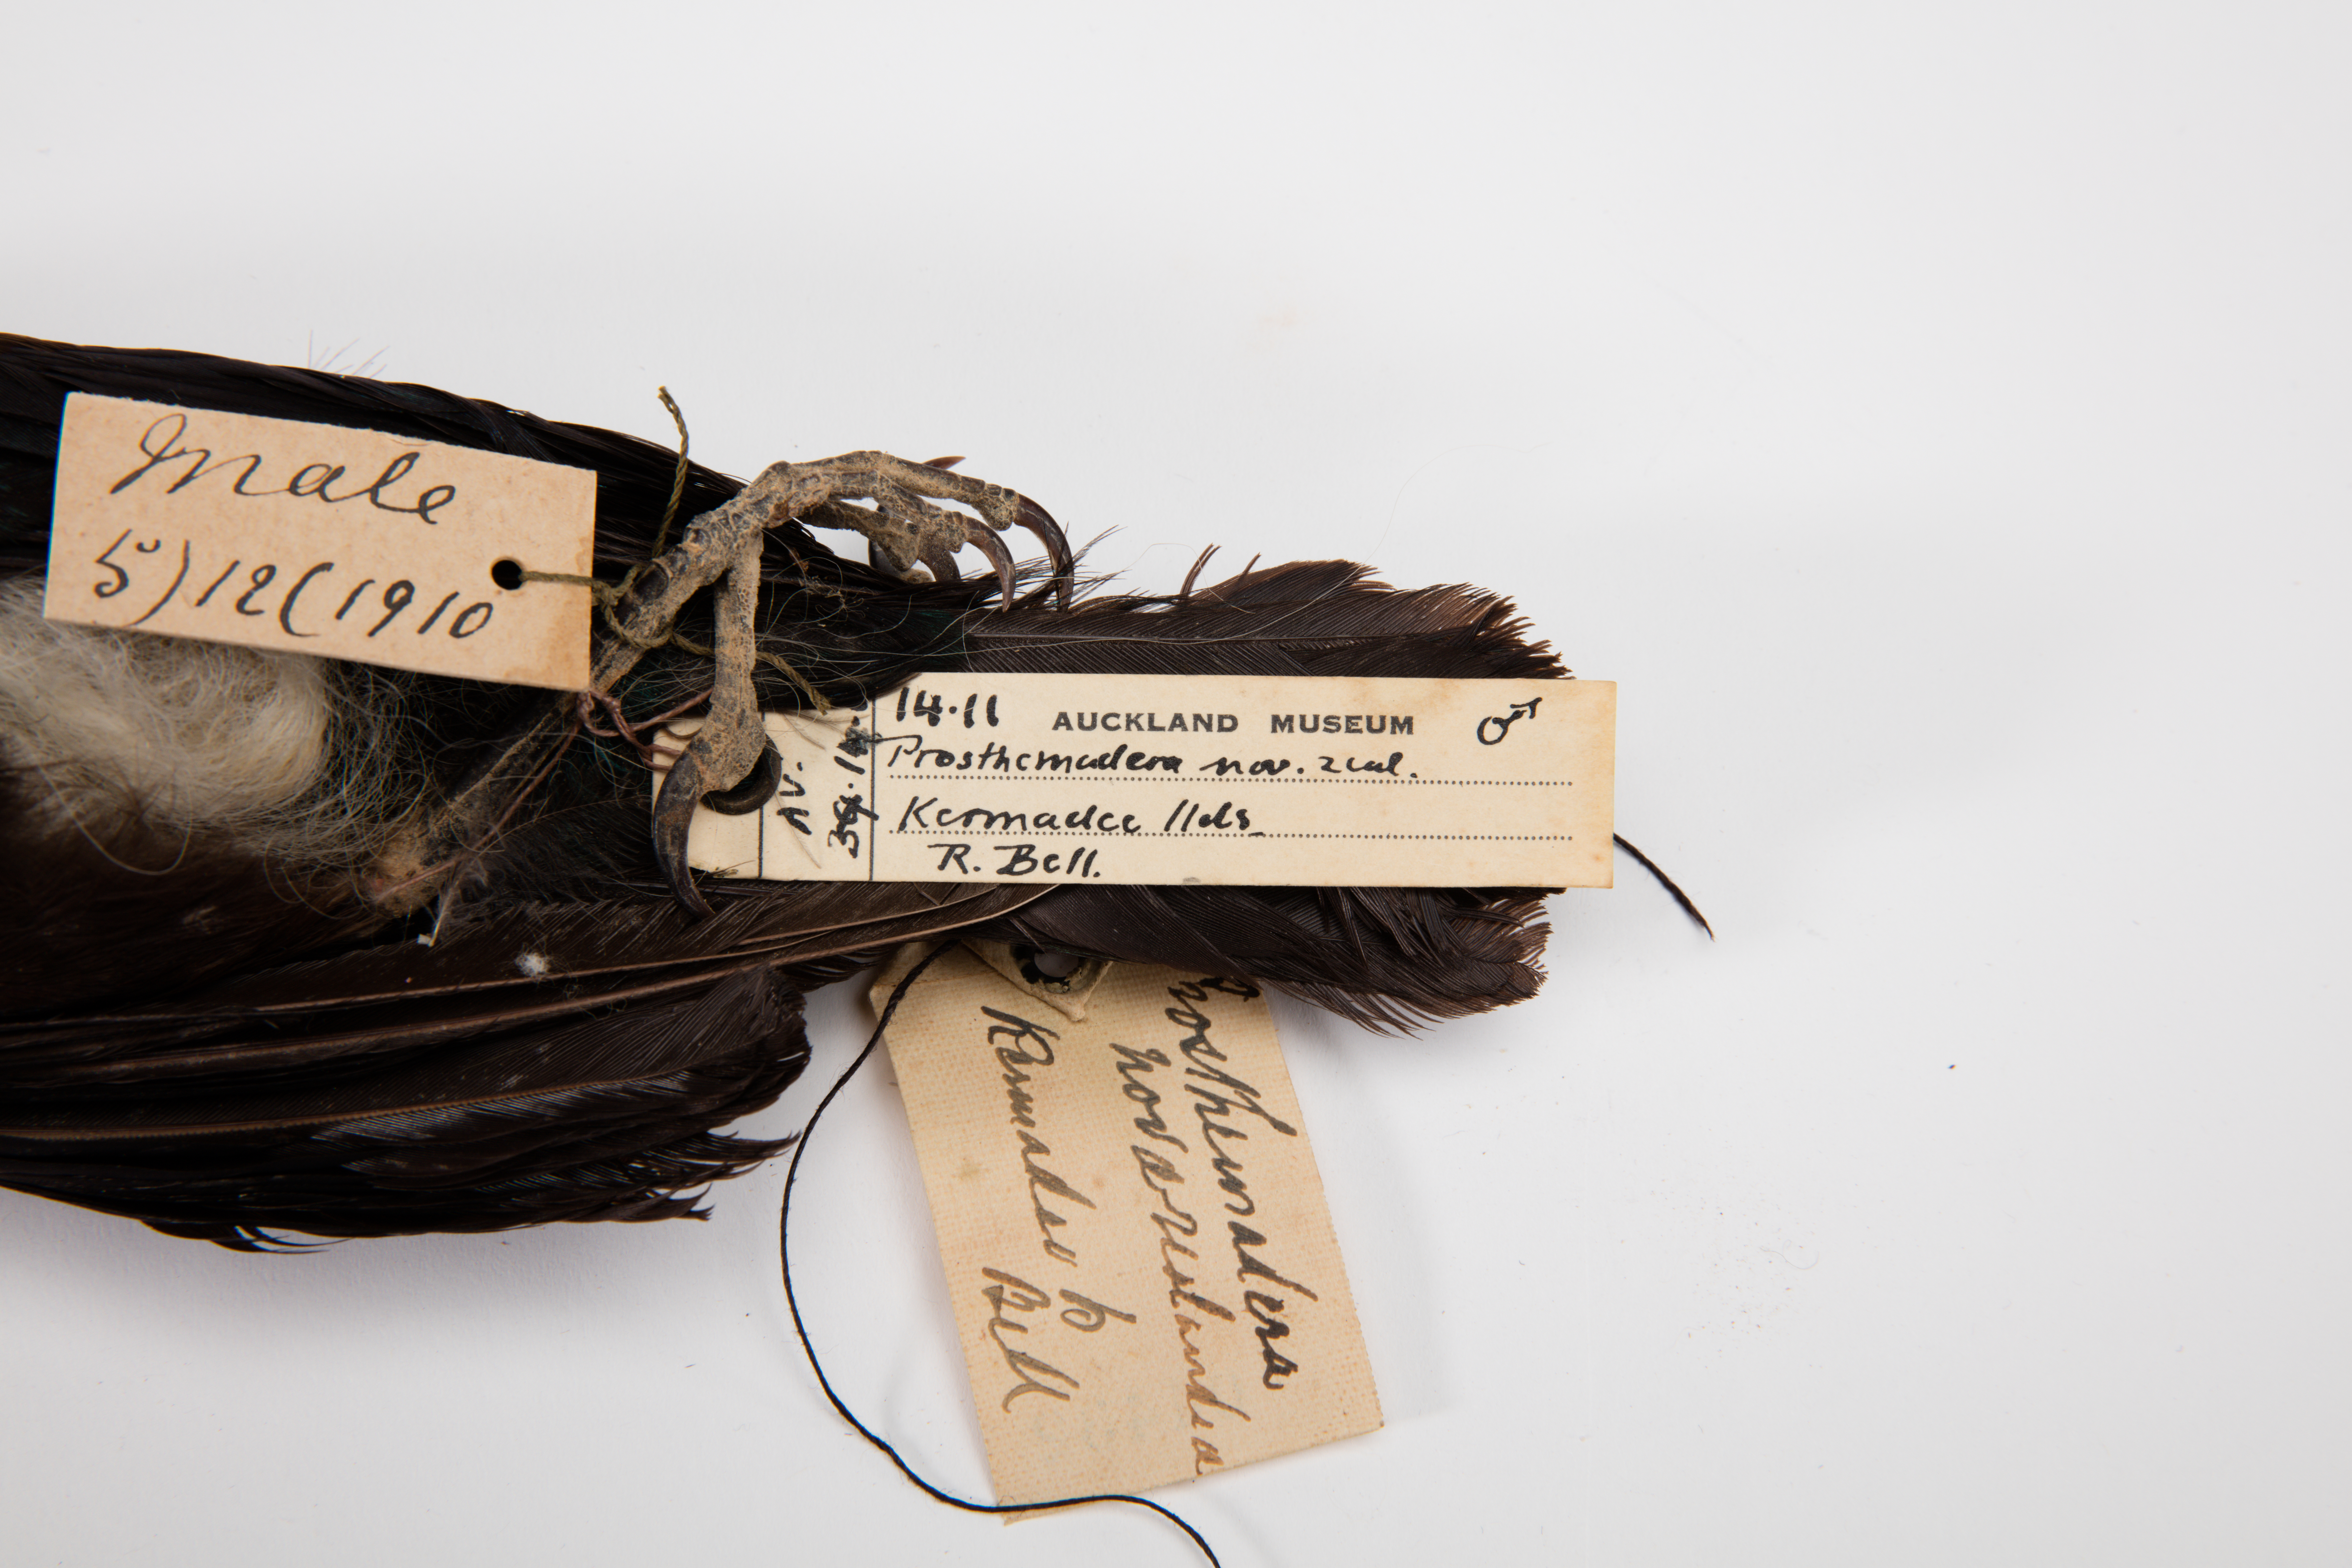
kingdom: Animalia
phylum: Chordata
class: Aves
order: Passeriformes
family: Meliphagidae
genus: Prosthemadera
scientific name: Prosthemadera novaeseelandiae
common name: Tui
